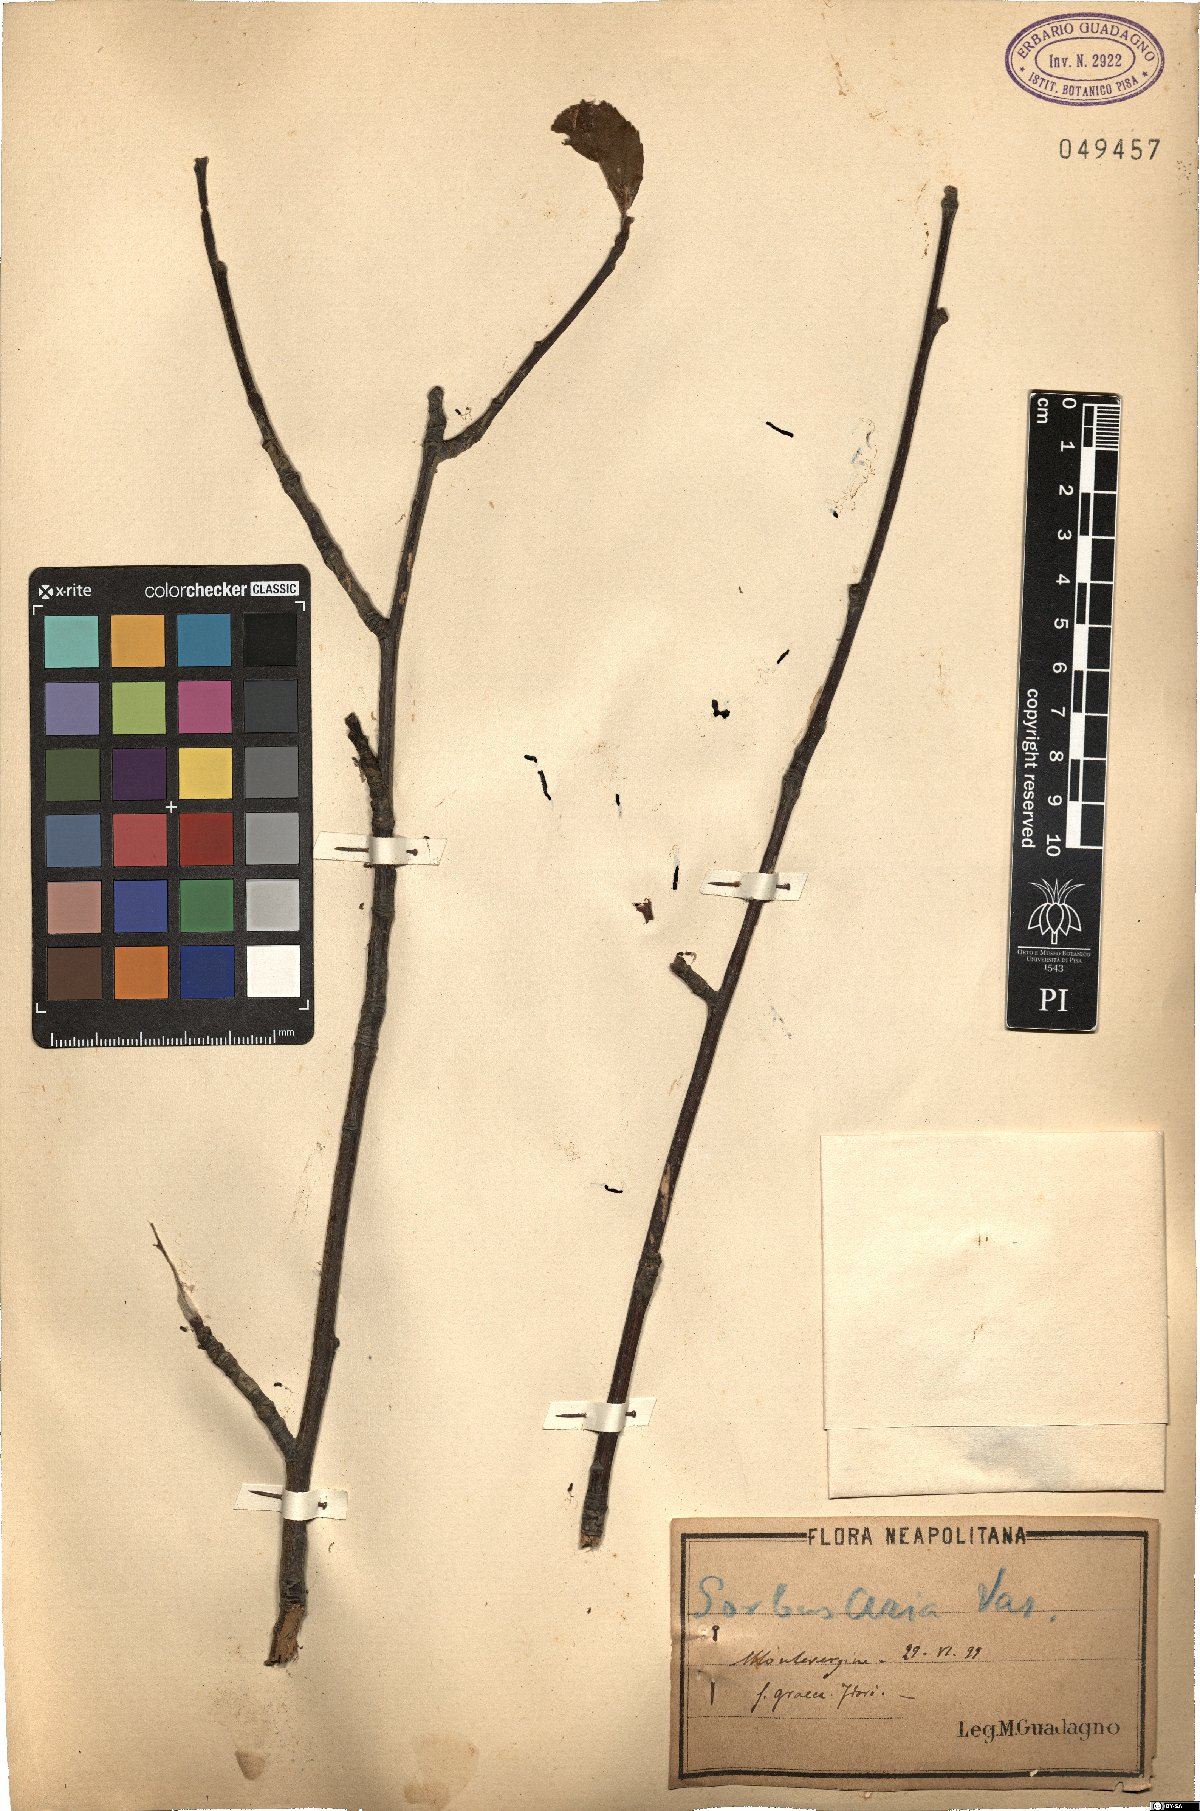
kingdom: Plantae
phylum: Tracheophyta
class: Magnoliopsida
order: Rosales
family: Rosaceae
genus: Aria
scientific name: Aria umbellata
